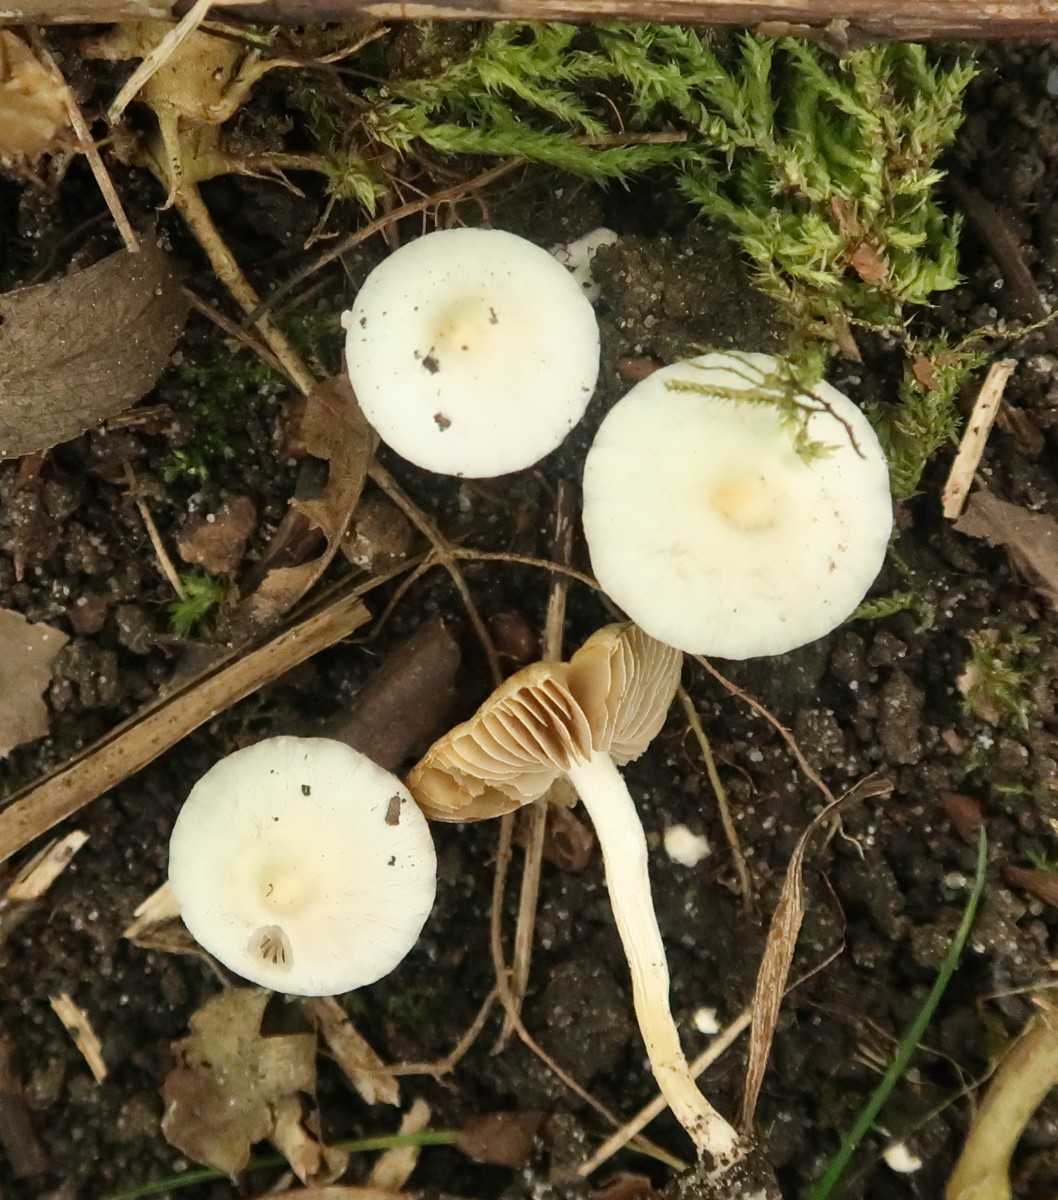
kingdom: Fungi
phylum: Basidiomycota
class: Agaricomycetes
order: Agaricales
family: Inocybaceae
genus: Inocybe
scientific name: Inocybe
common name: almindelig trævlhat
